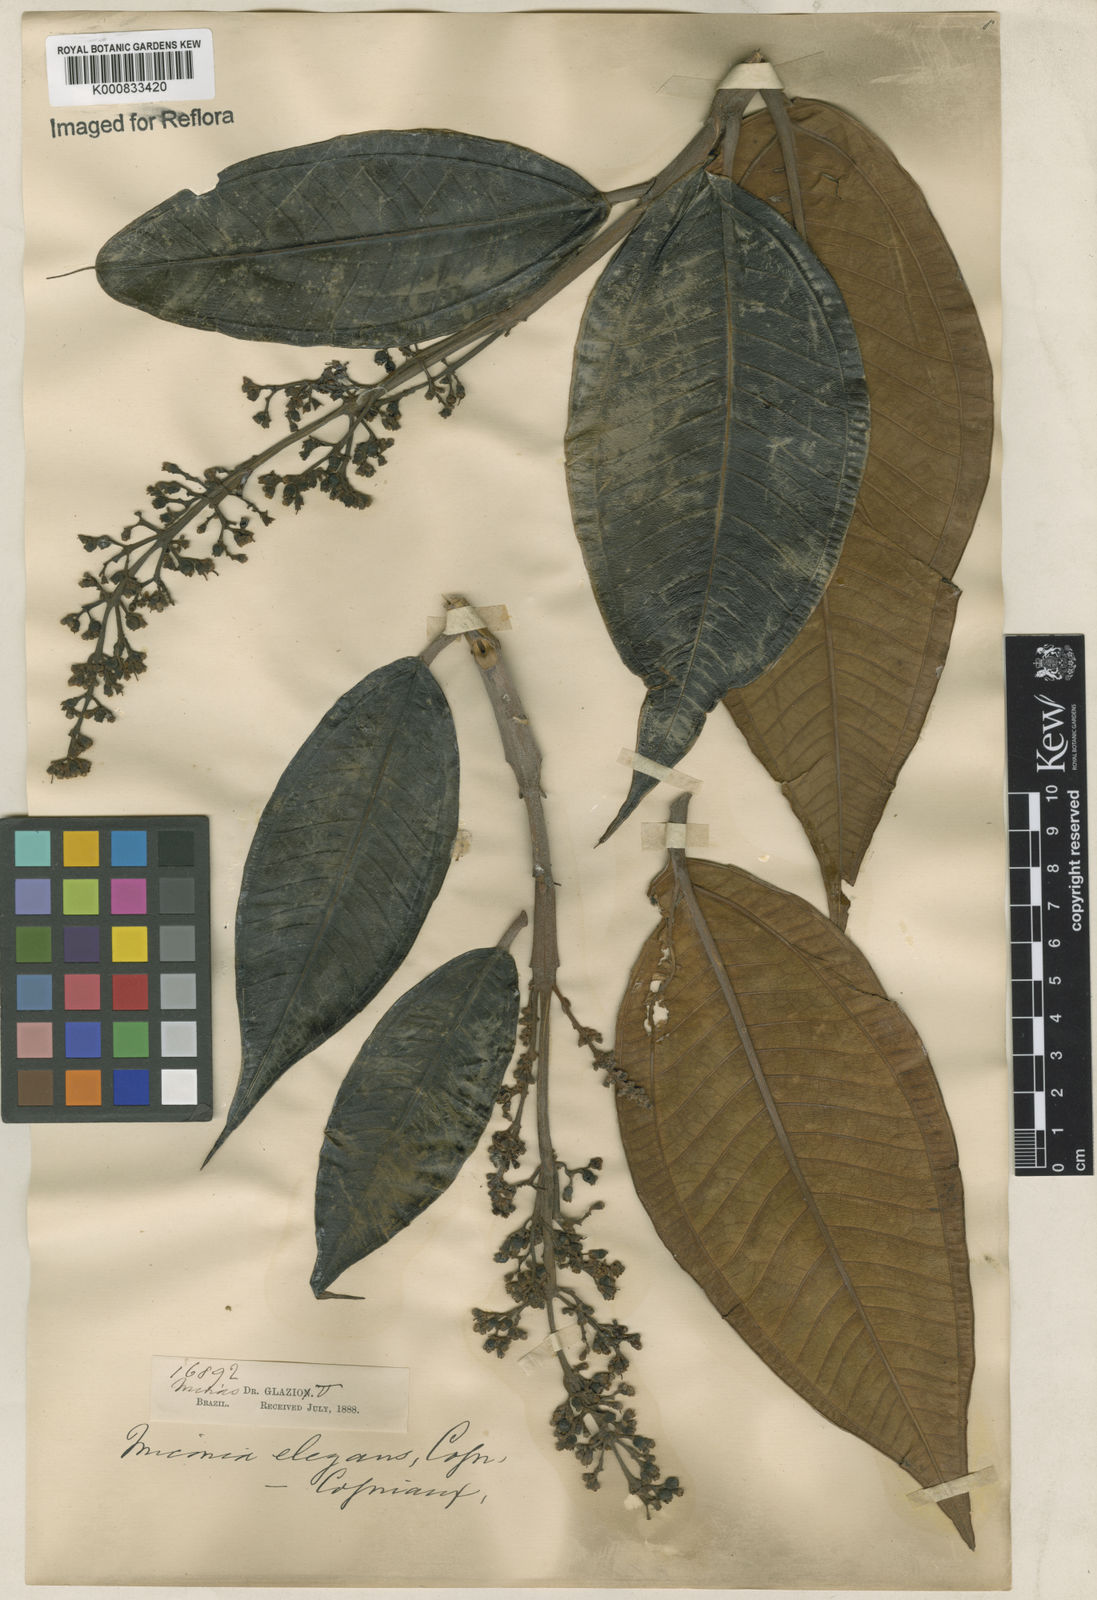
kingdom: Plantae
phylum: Tracheophyta
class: Magnoliopsida
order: Myrtales
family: Melastomataceae
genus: Miconia
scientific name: Miconia elegans
